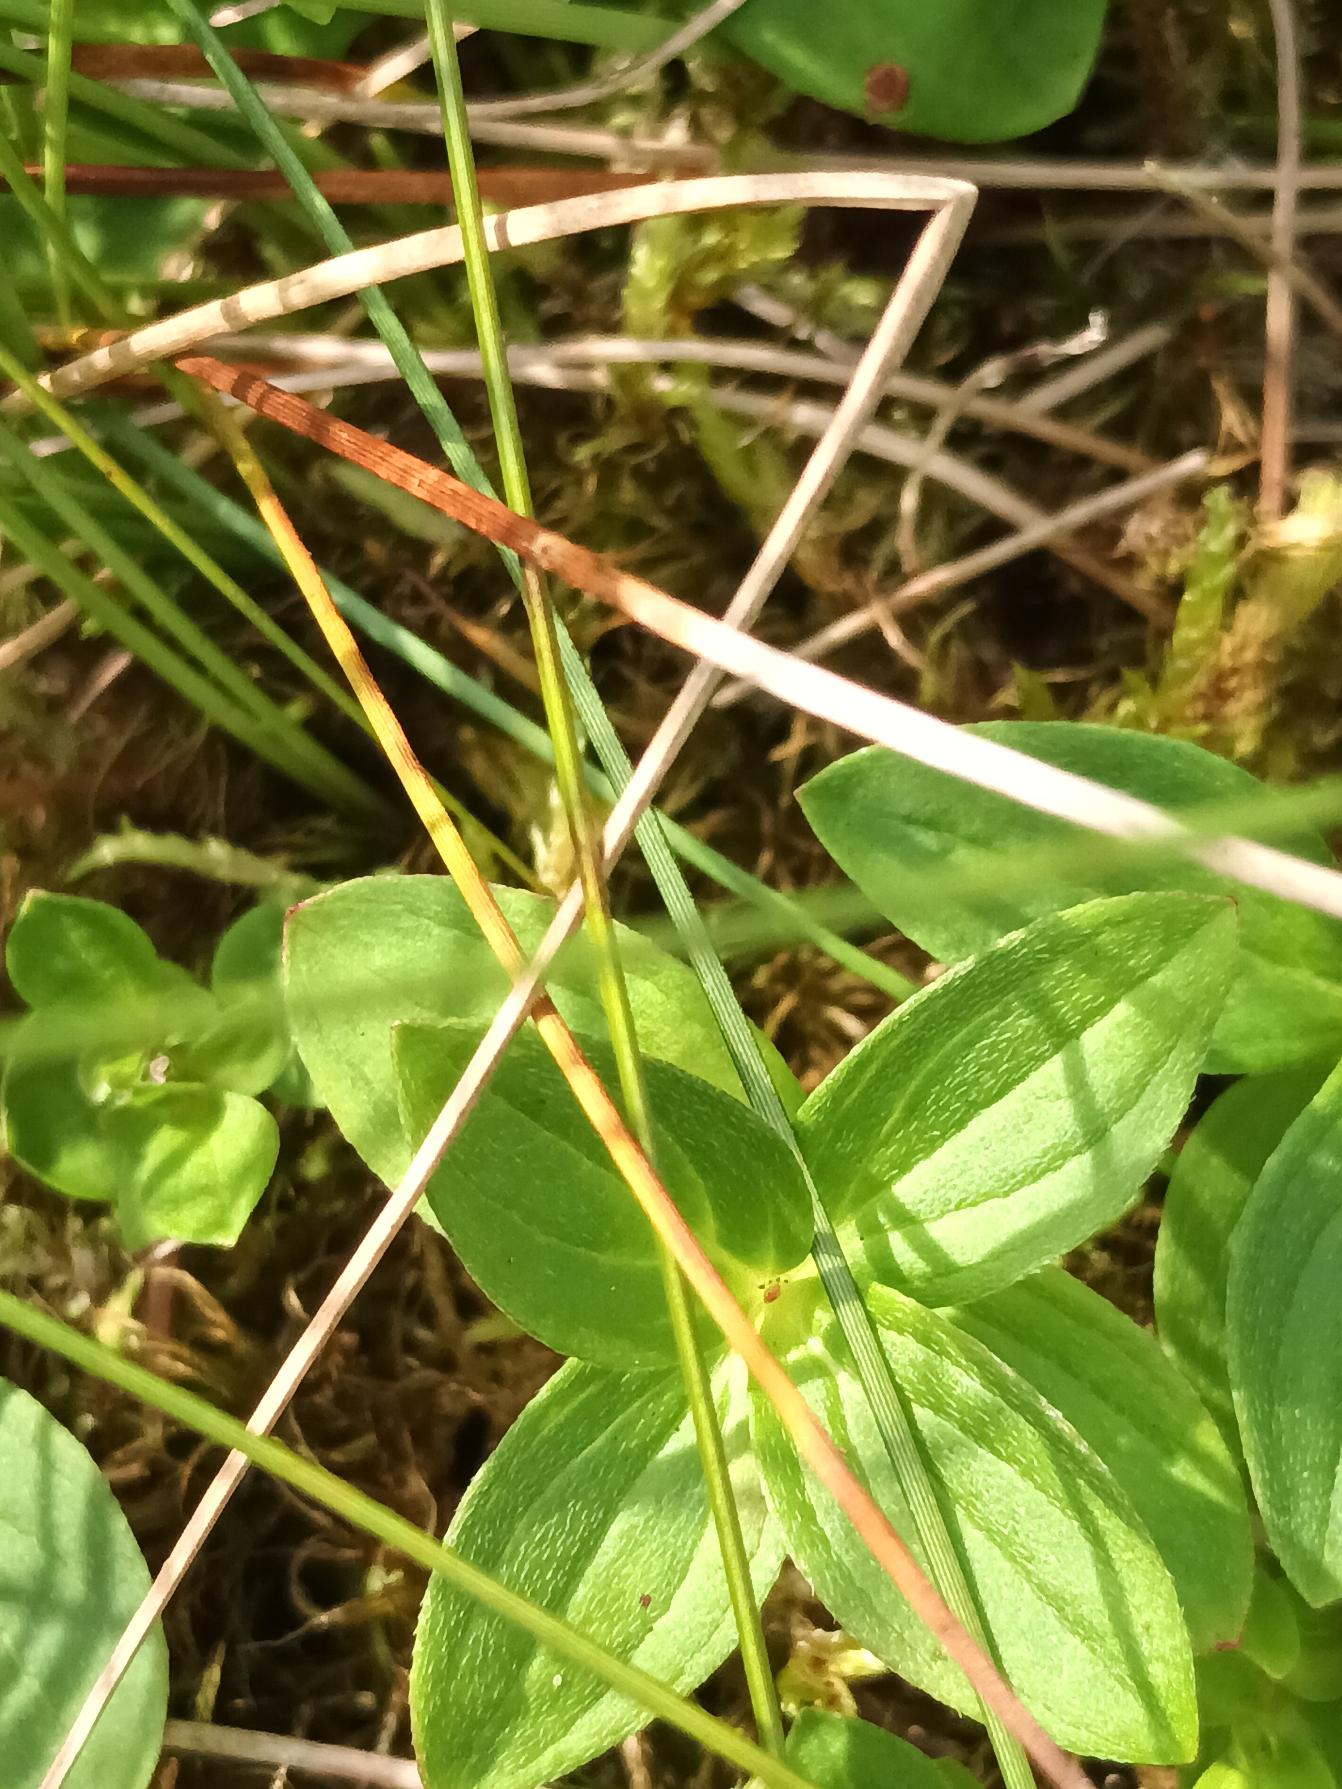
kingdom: Plantae
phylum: Tracheophyta
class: Magnoliopsida
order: Cornales
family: Cornaceae
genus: Cornus
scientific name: Cornus suecica
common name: Hønsebær
